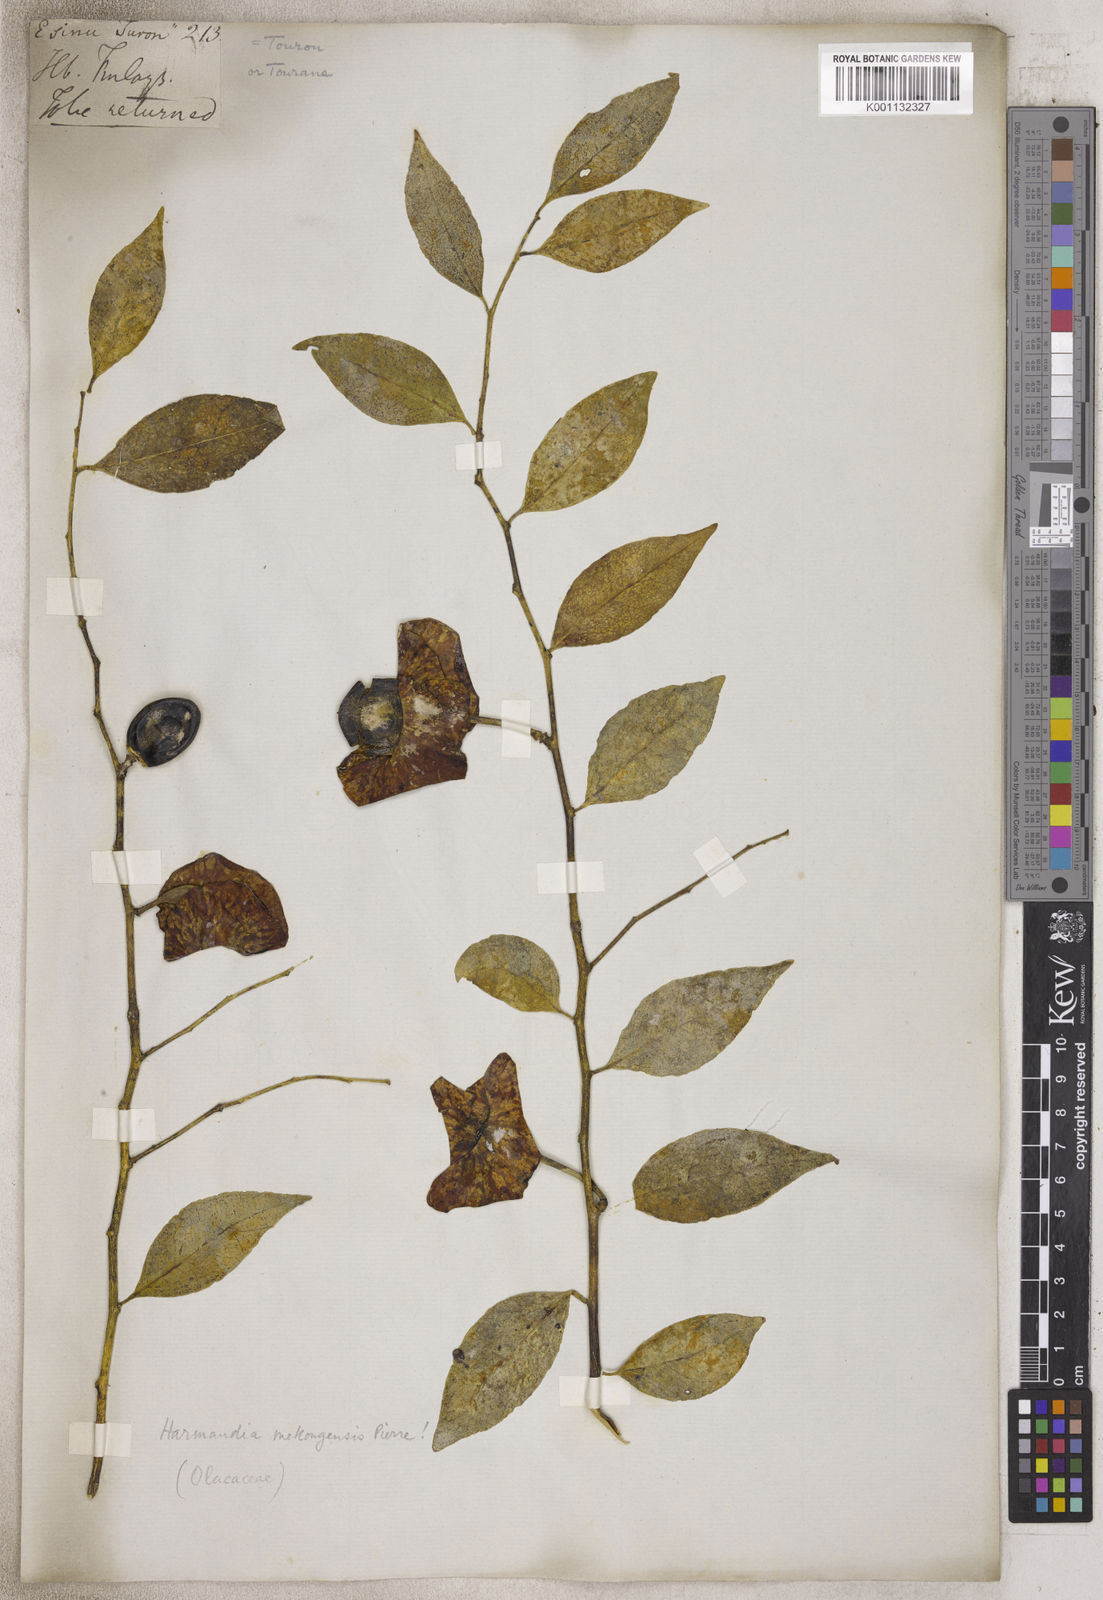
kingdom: Plantae
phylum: Tracheophyta
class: Magnoliopsida
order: Santalales
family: Aptandraceae
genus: Harmandia
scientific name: Harmandia
